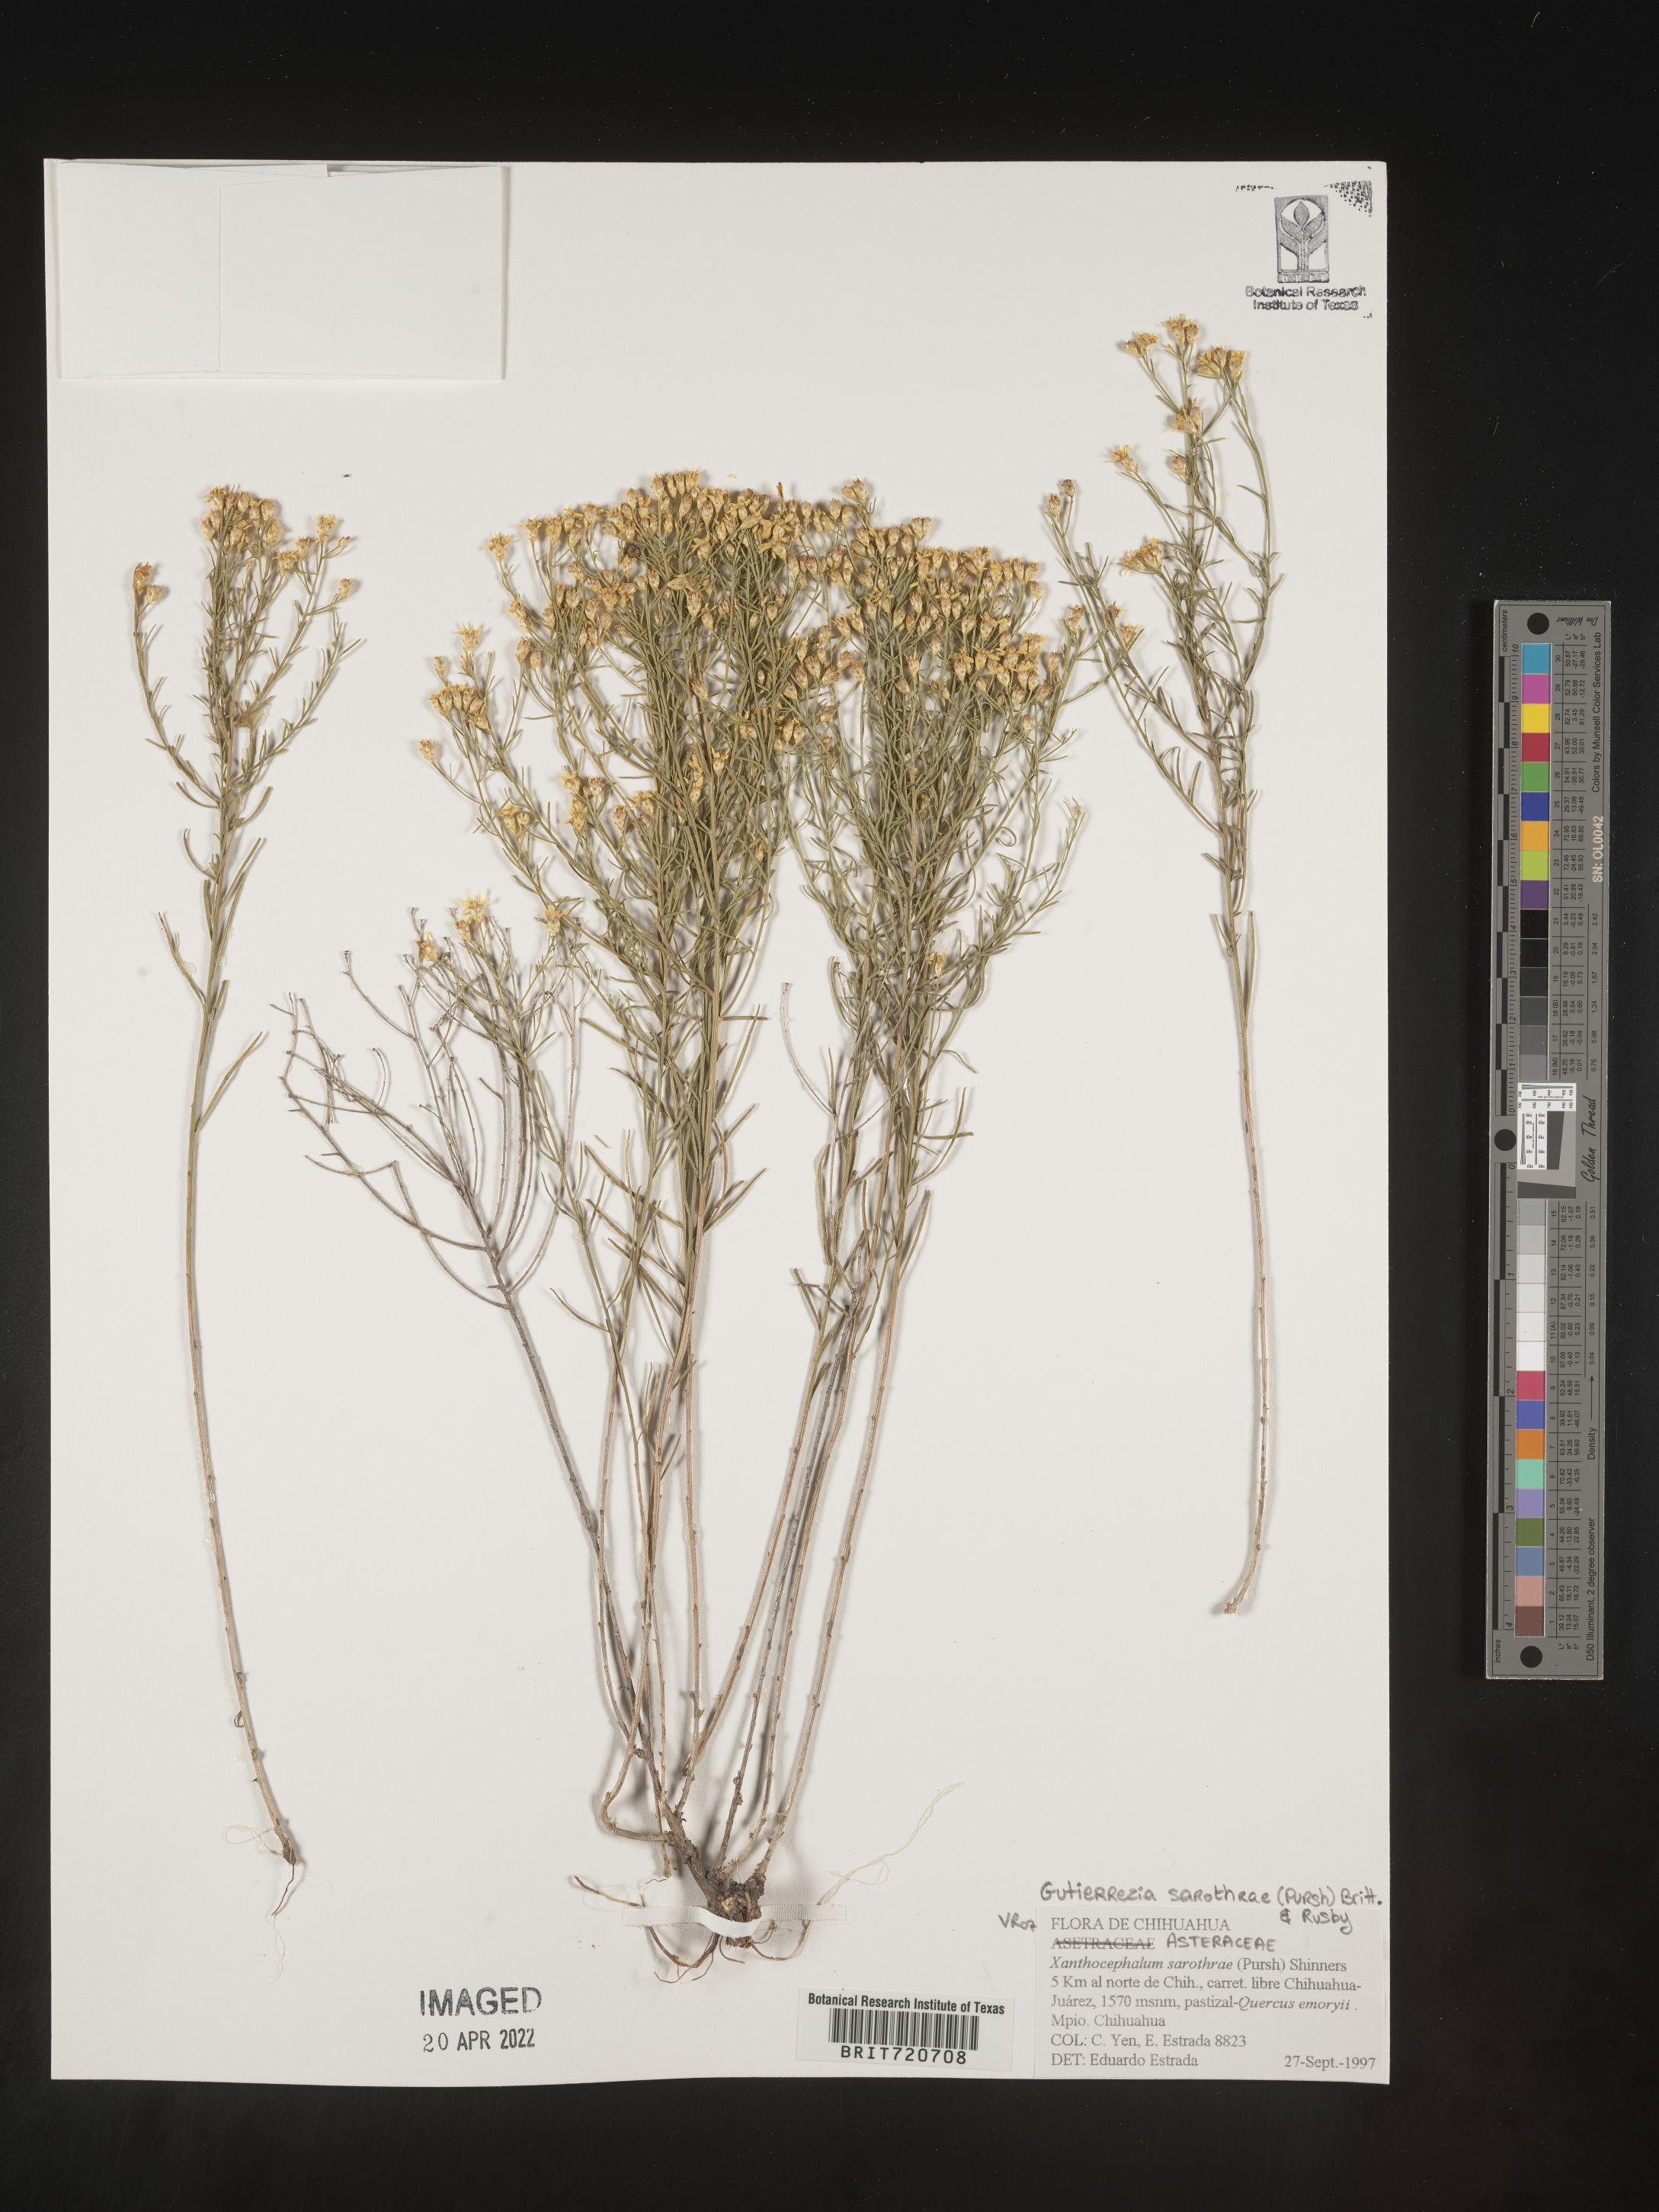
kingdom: Plantae
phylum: Tracheophyta
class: Magnoliopsida
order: Asterales
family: Asteraceae
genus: Gutierrezia
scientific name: Gutierrezia sarothrae
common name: Broom snakeweed
